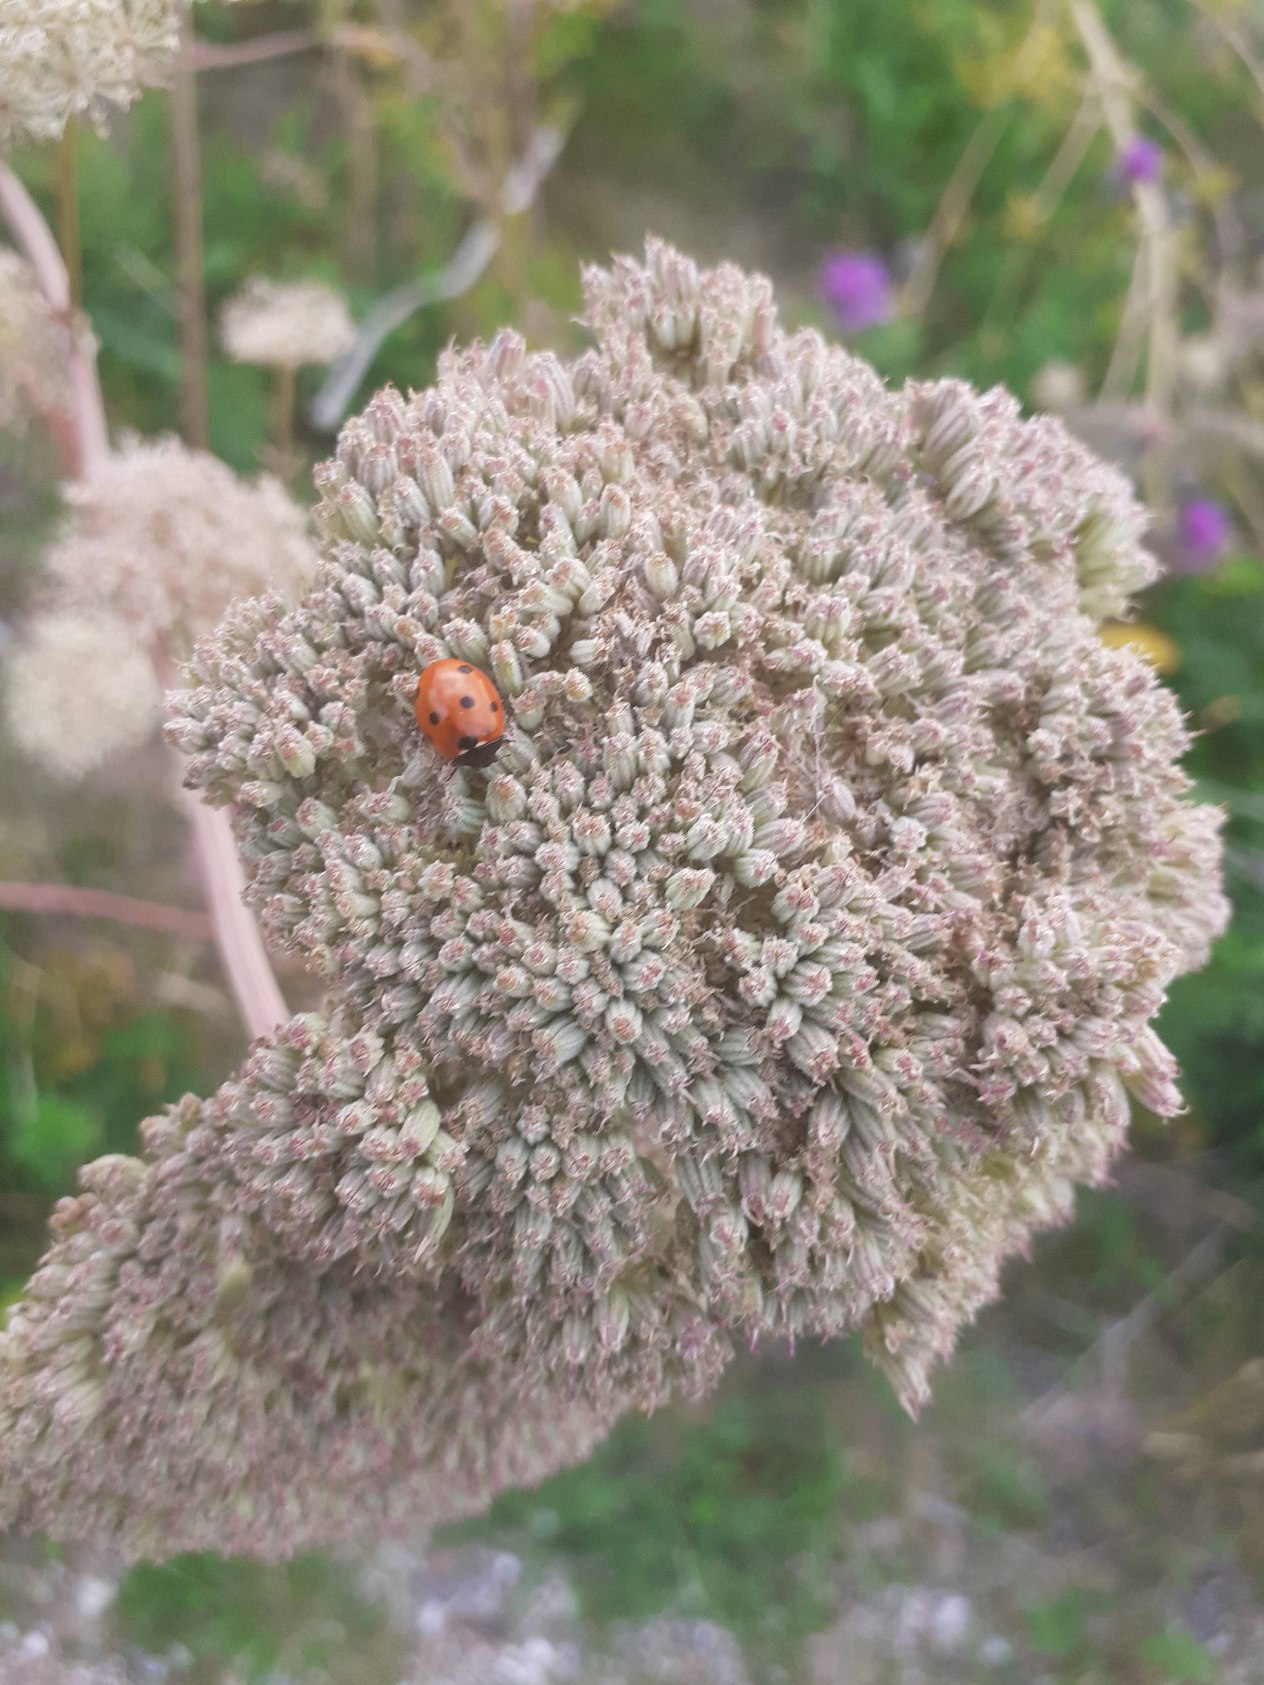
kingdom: Animalia
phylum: Arthropoda
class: Insecta
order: Coleoptera
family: Coccinellidae
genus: Coccinella
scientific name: Coccinella septempunctata
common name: Syvplettet mariehøne
